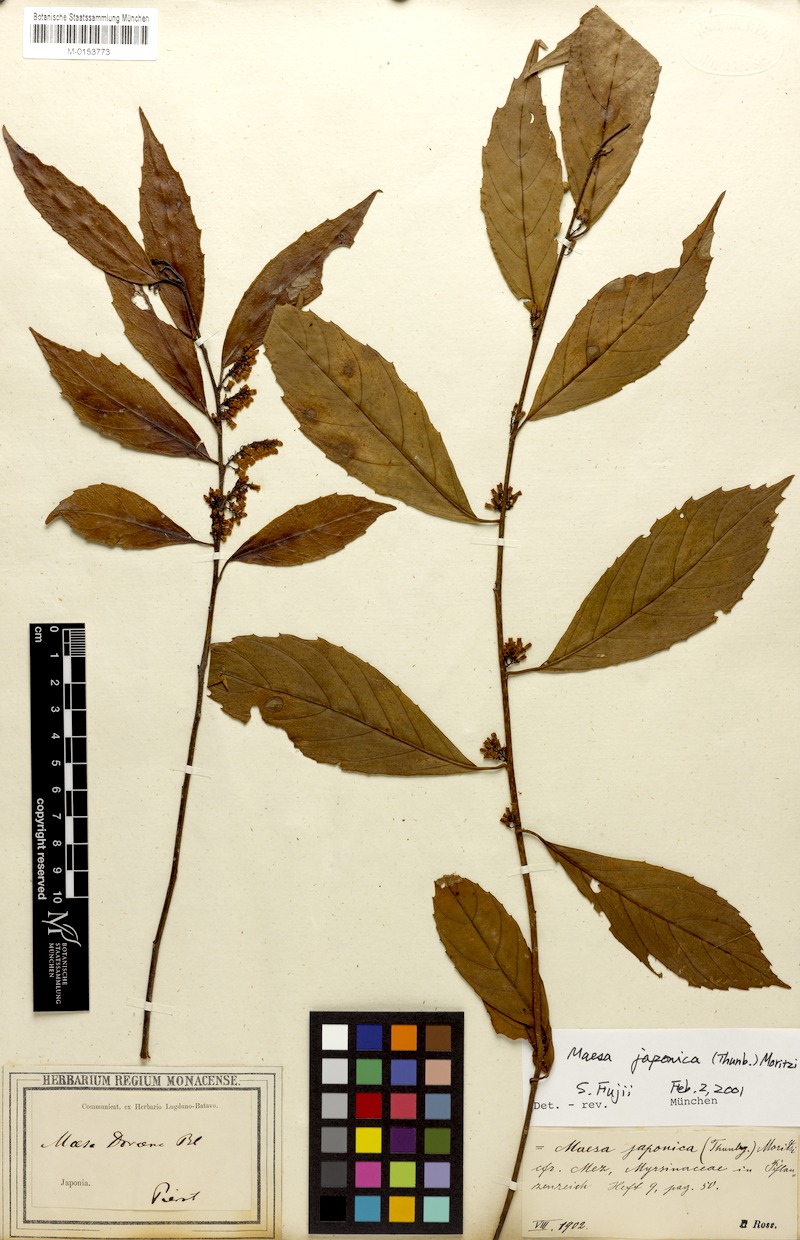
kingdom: Plantae
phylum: Tracheophyta
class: Magnoliopsida
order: Ericales
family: Primulaceae
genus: Maesa
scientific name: Maesa japonica
